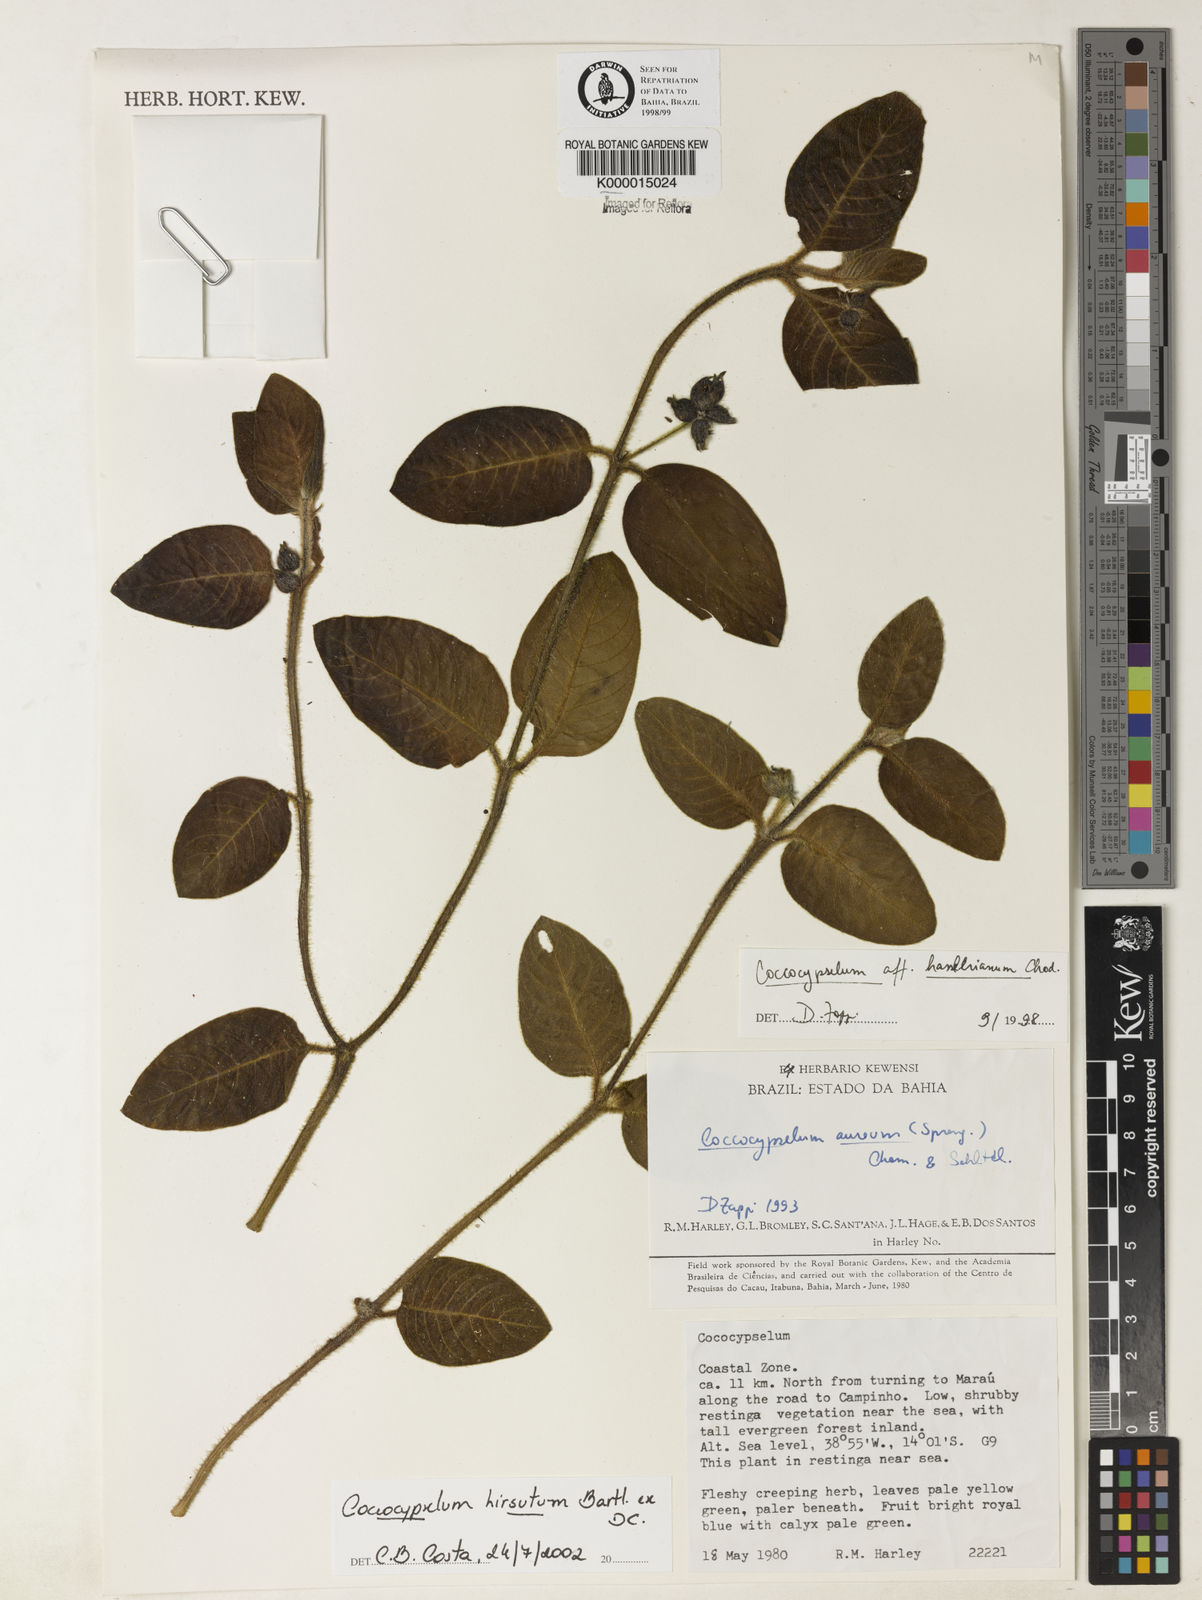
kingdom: Plantae
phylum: Tracheophyta
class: Magnoliopsida
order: Gentianales
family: Rubiaceae
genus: Coccocypselum
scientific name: Coccocypselum hirsutum
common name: Yerba de guava
